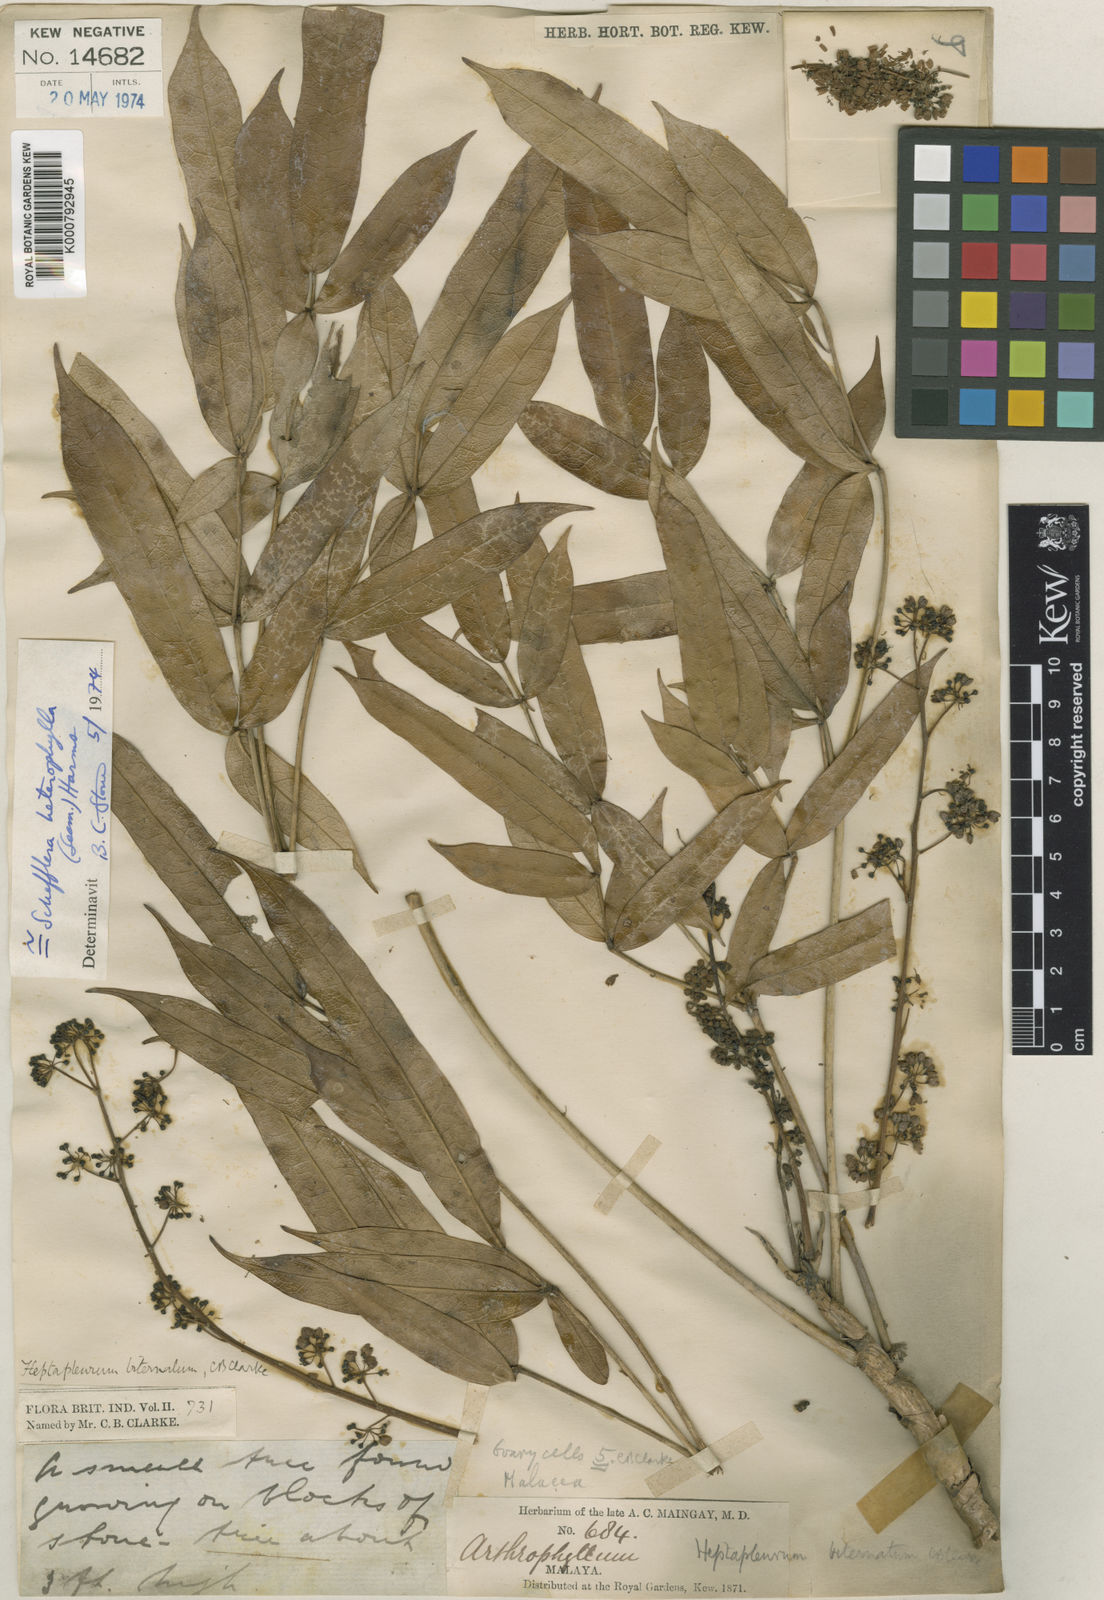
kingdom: Plantae
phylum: Tracheophyta
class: Magnoliopsida
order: Apiales
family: Araliaceae
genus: Heptapleurum
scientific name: Heptapleurum heterophyllum
